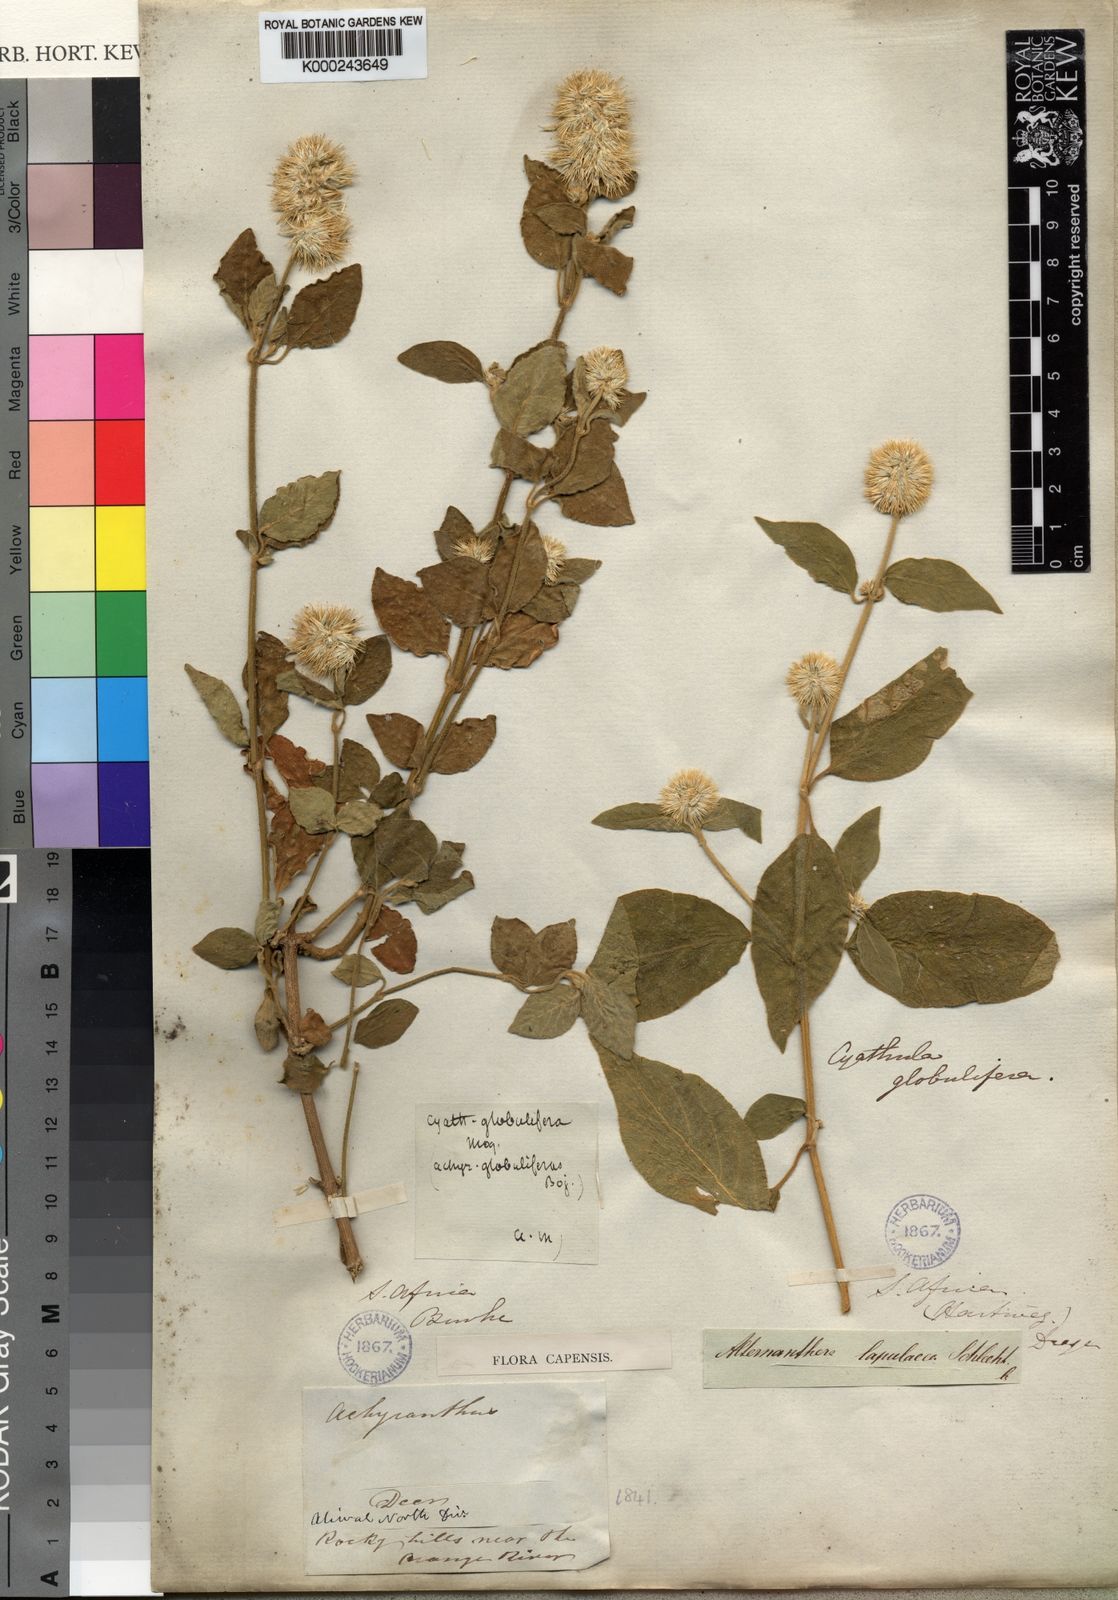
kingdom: Plantae
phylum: Tracheophyta
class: Magnoliopsida
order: Caryophyllales
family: Amaranthaceae
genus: Cyathula
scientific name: Cyathula uncinulata
